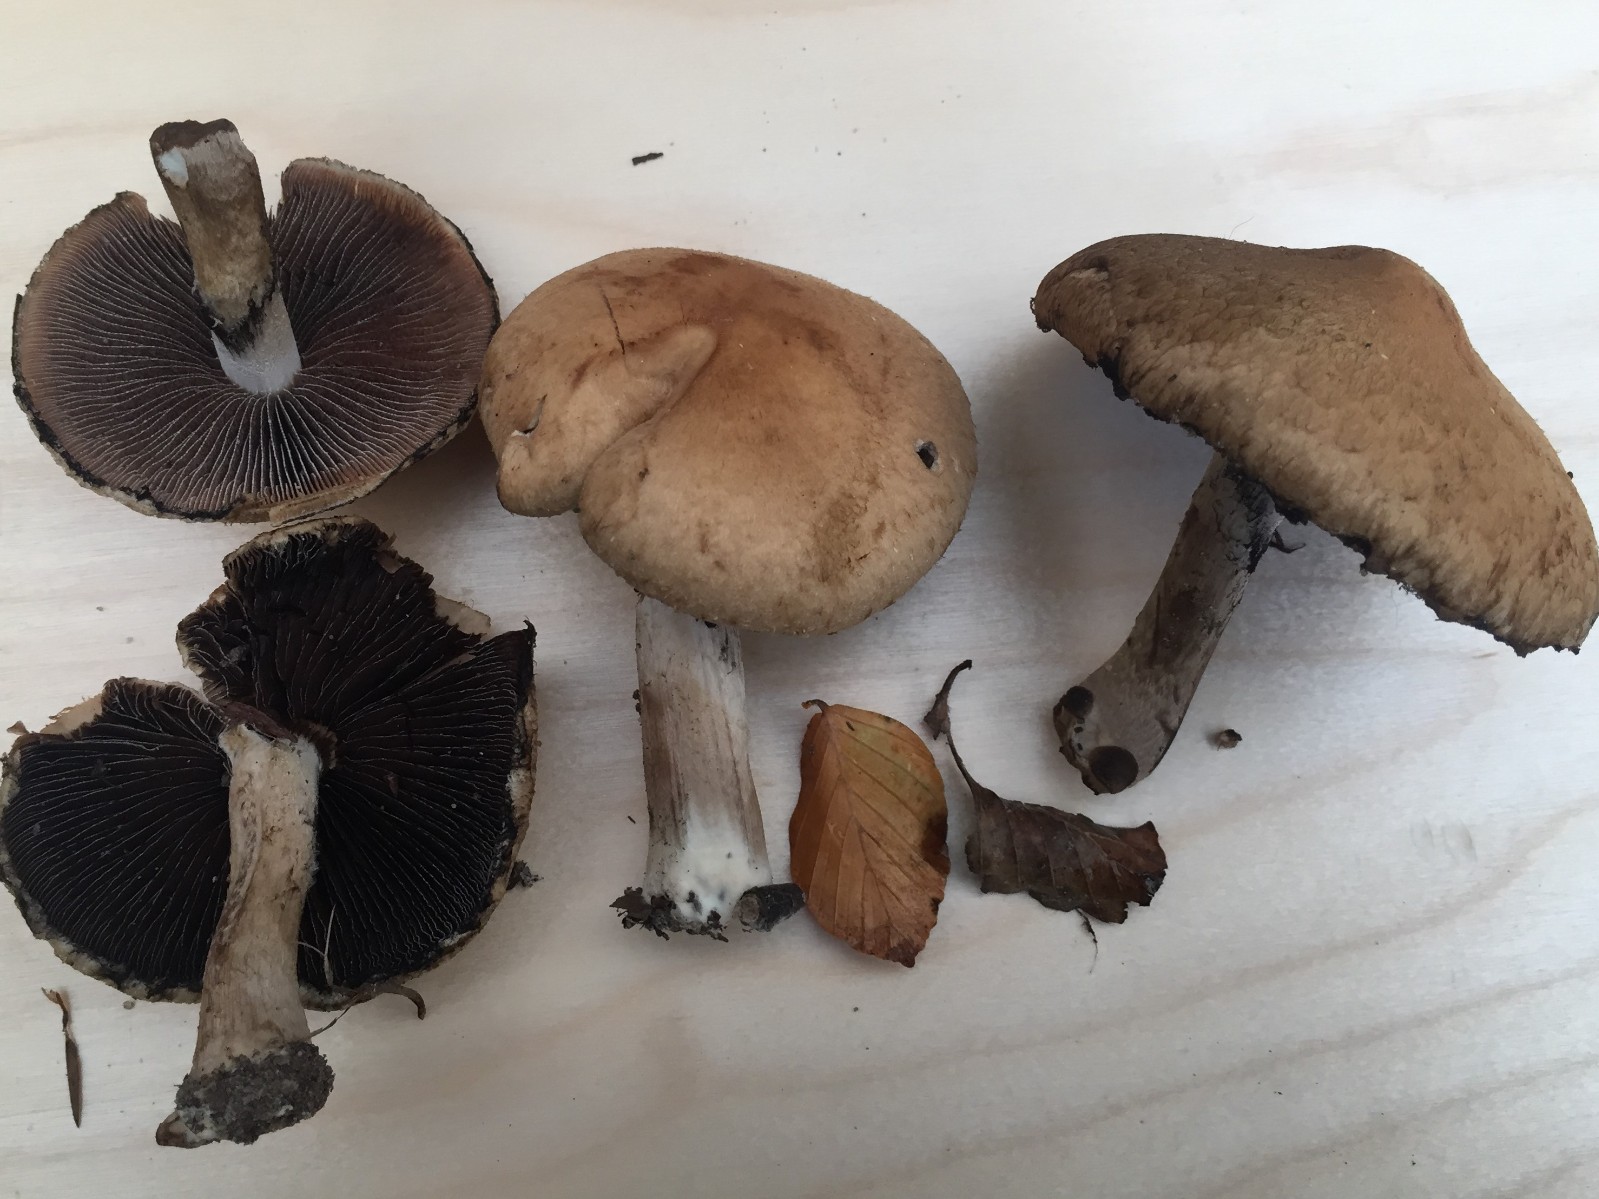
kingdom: Fungi
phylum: Basidiomycota
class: Agaricomycetes
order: Agaricales
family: Psathyrellaceae
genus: Lacrymaria
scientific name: Lacrymaria lacrymabunda
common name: grædende mørkhat
